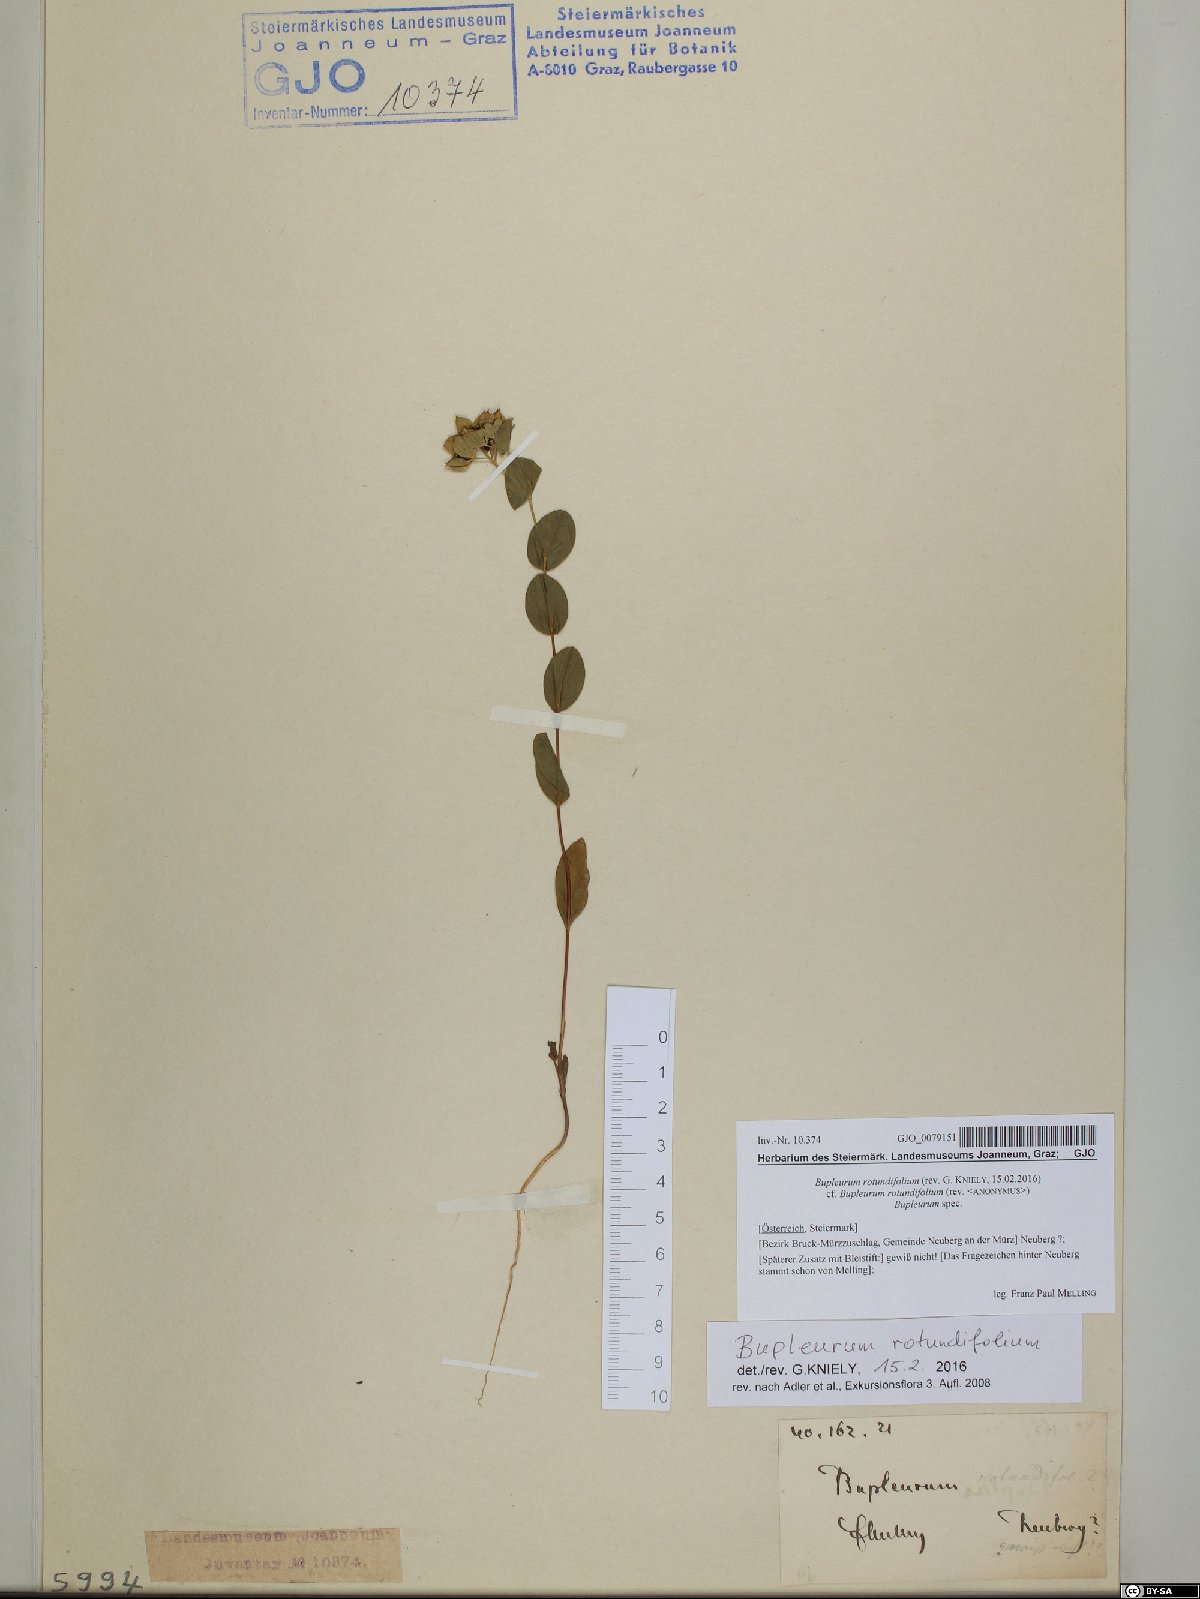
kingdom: Plantae
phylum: Tracheophyta
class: Magnoliopsida
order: Apiales
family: Apiaceae
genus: Bupleurum
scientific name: Bupleurum rotundifolium
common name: Thorow-wax
